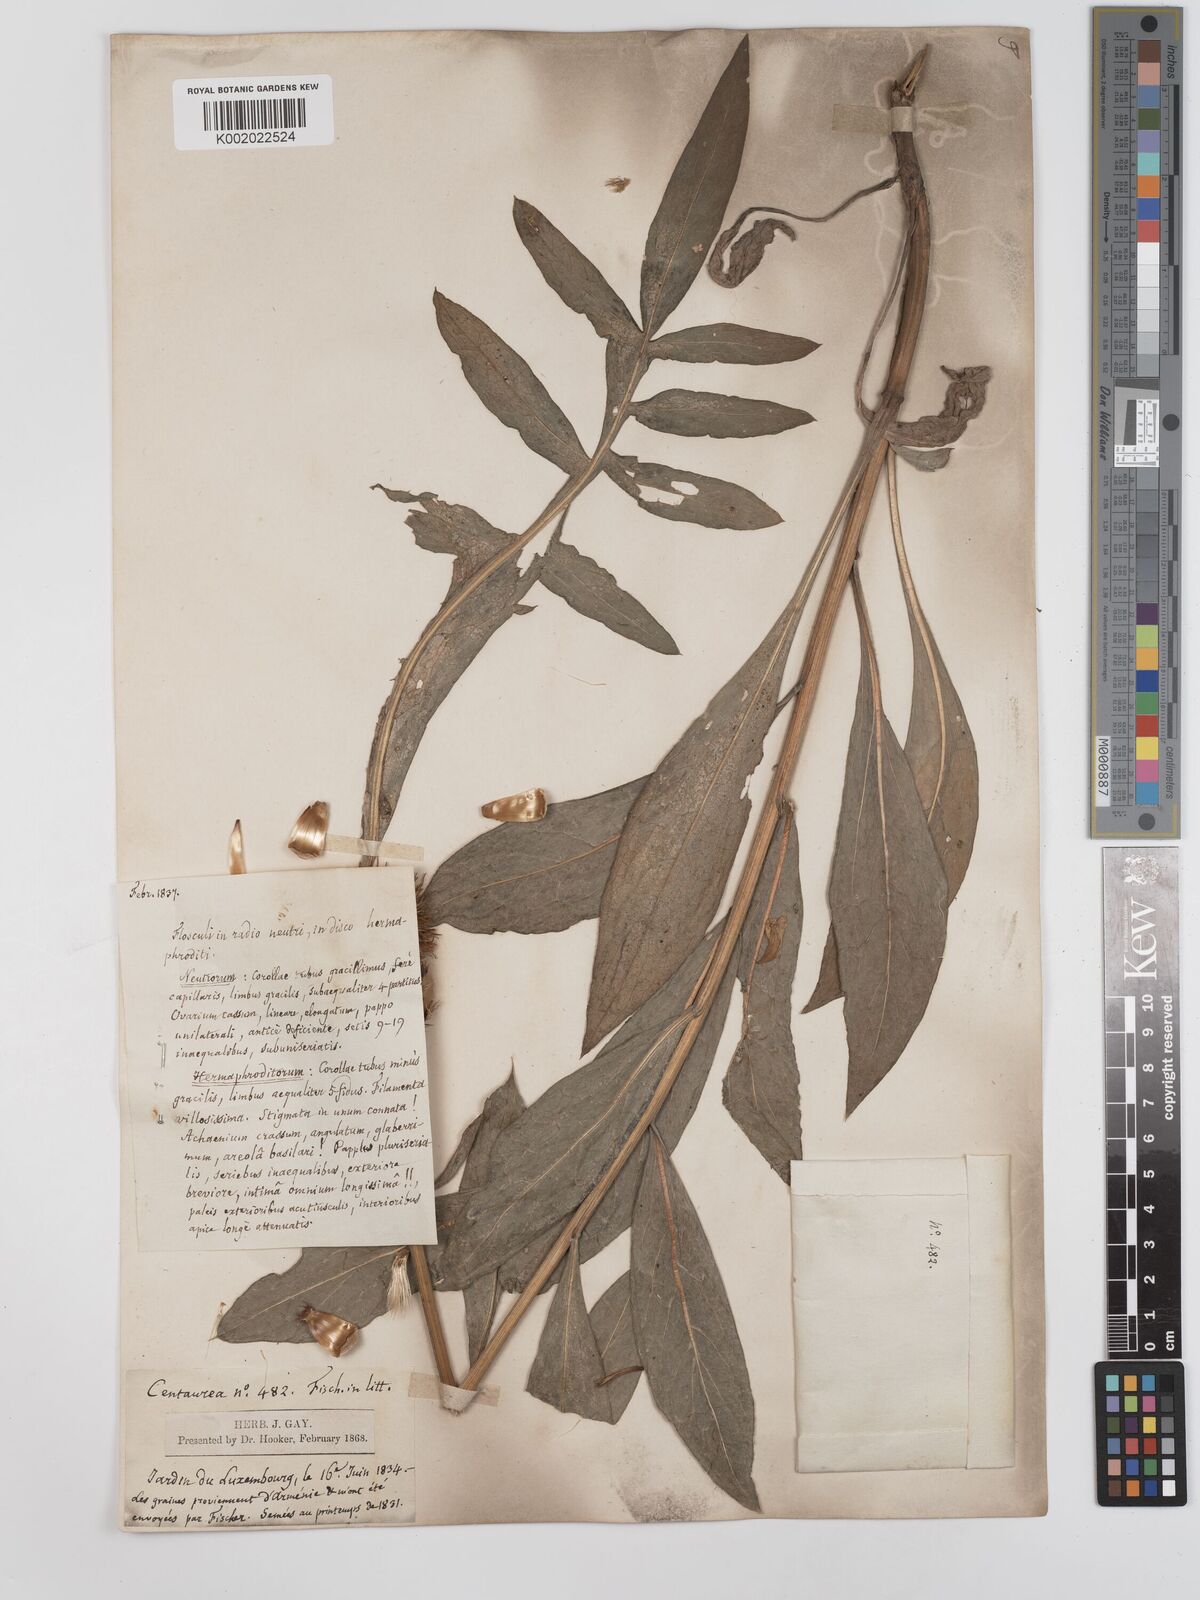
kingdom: Plantae
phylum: Tracheophyta
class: Magnoliopsida
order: Asterales
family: Asteraceae
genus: Centaurea
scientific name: Centaurea spectabilis
